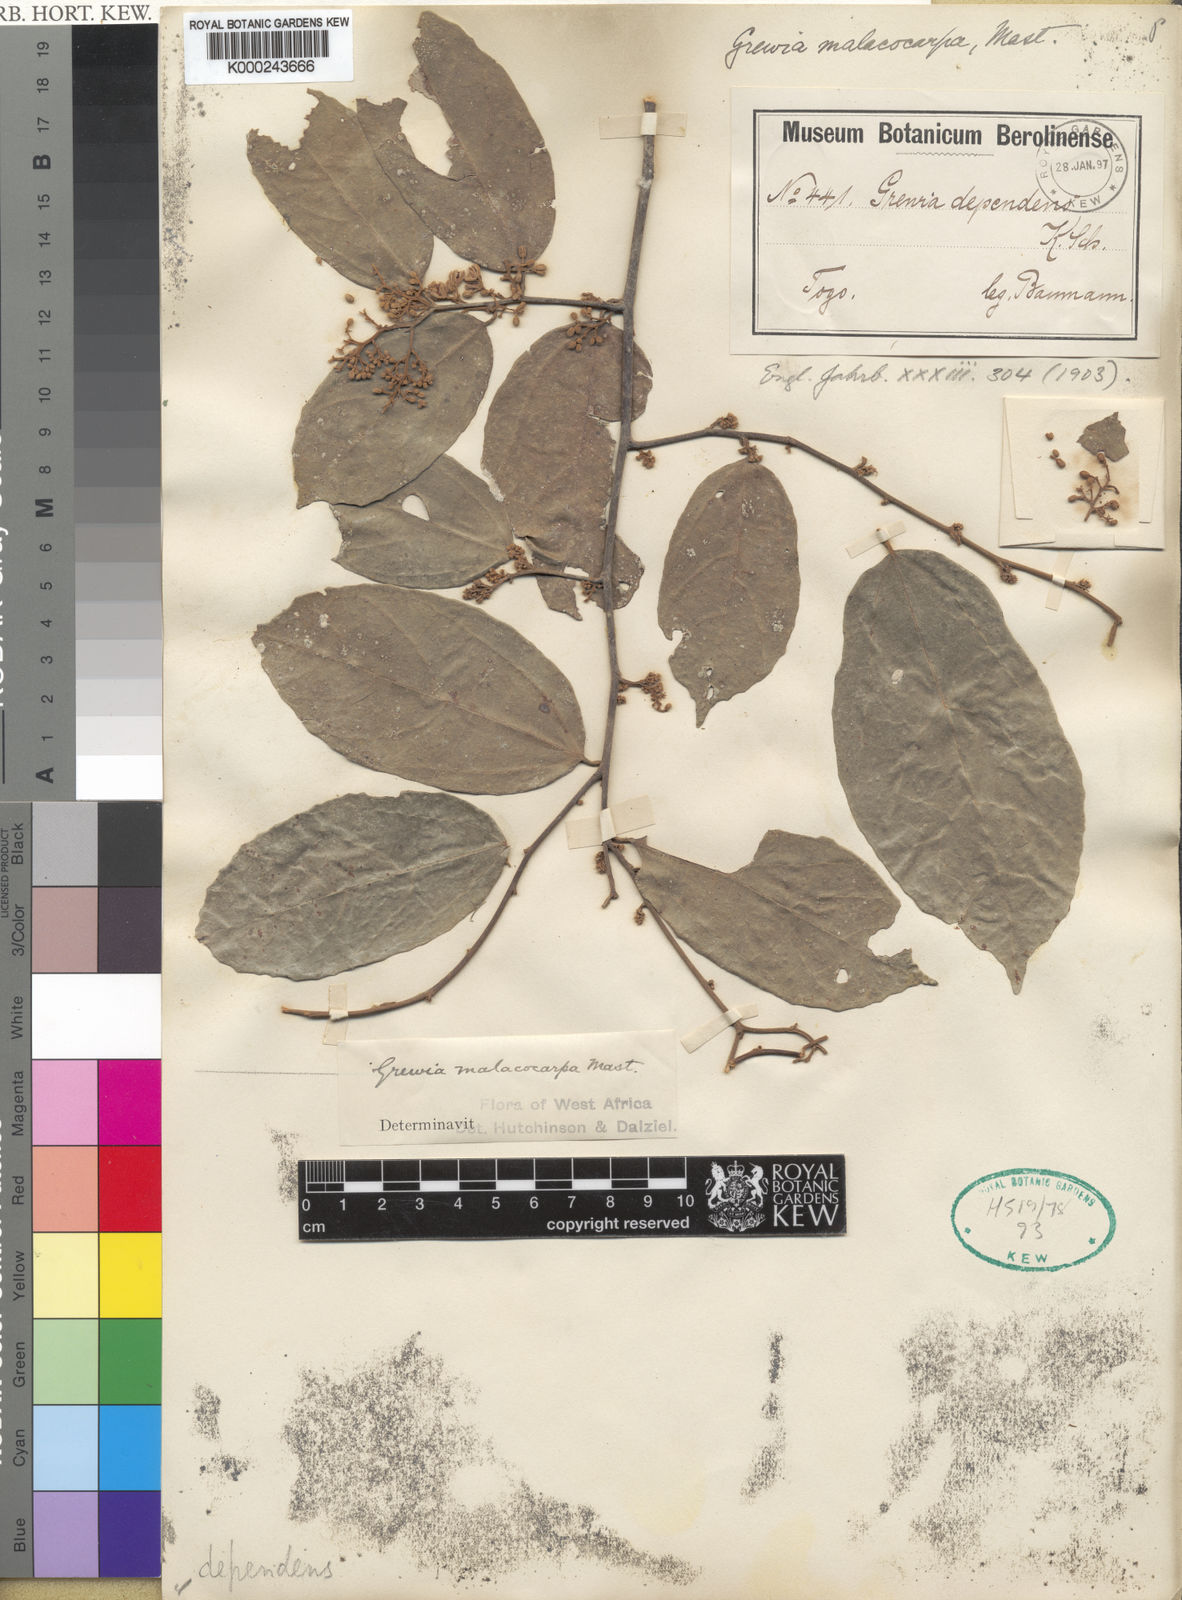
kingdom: Plantae
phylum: Tracheophyta
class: Magnoliopsida
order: Malvales
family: Malvaceae
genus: Microcos
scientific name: Microcos malacocarpa
